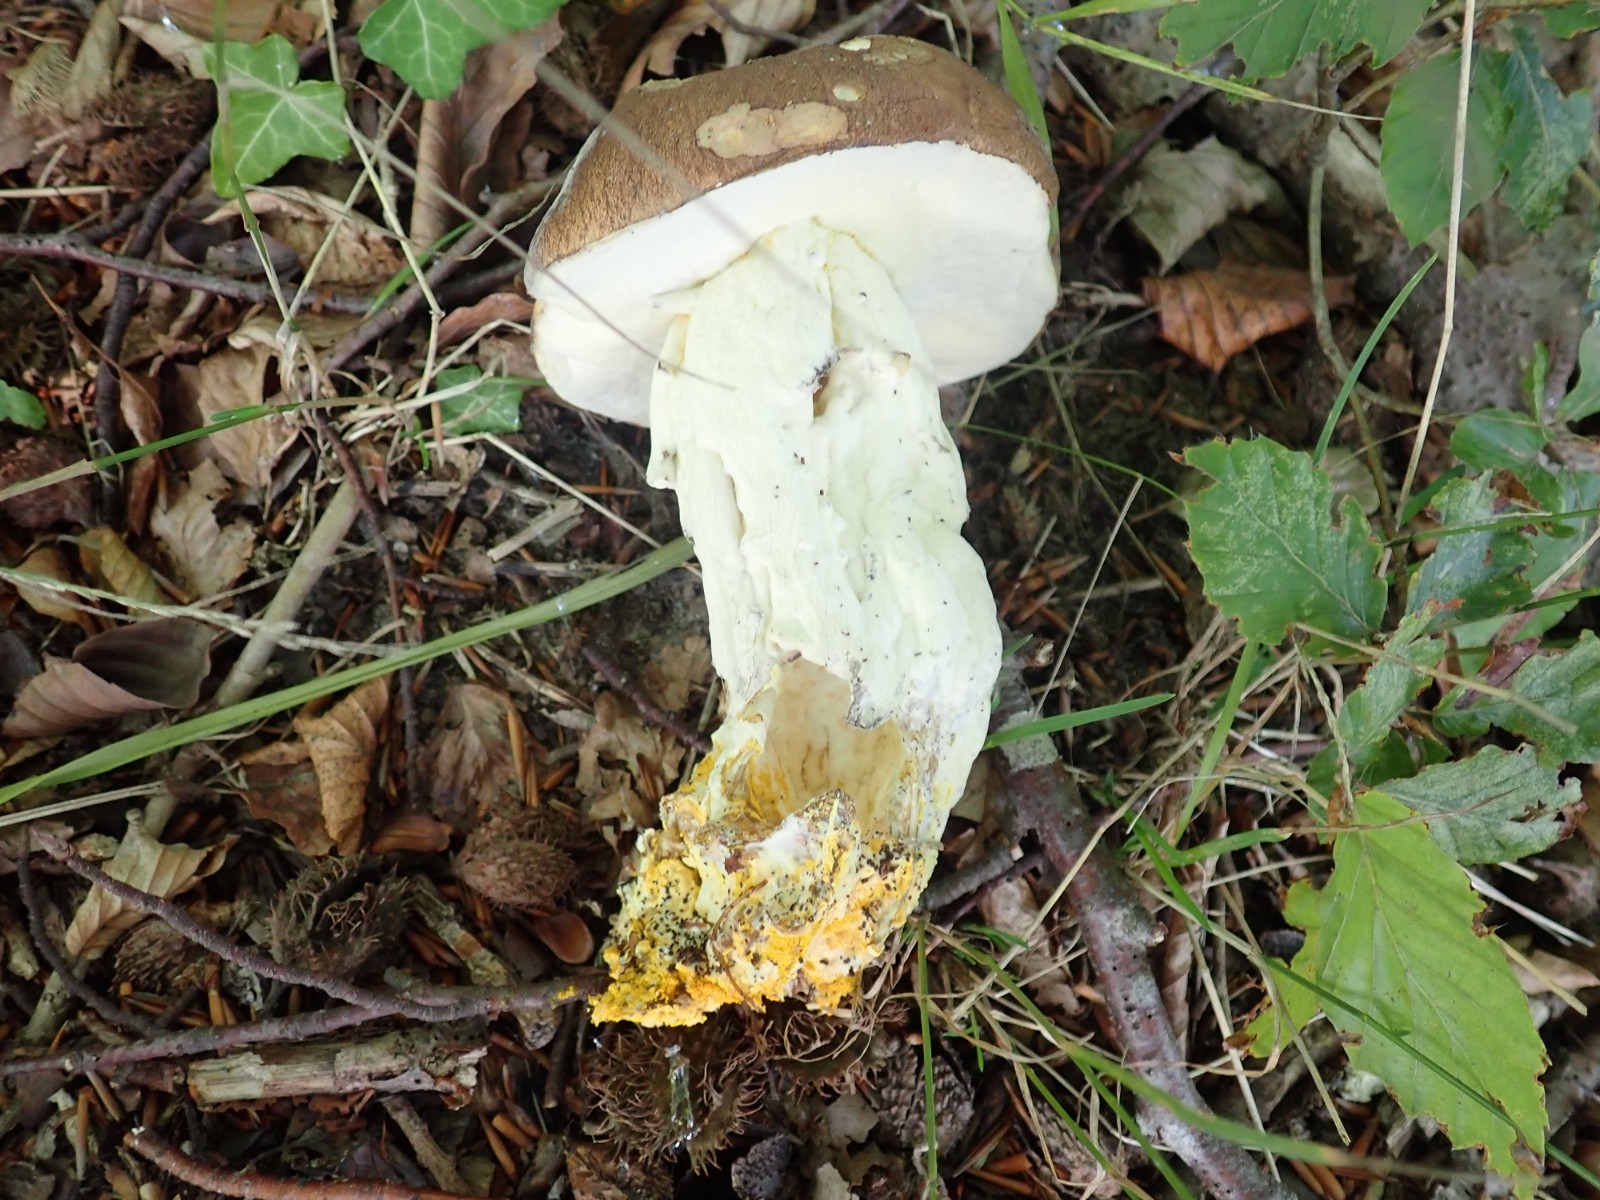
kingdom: Fungi
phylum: Ascomycota
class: Sordariomycetes
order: Hypocreales
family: Hypocreaceae
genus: Hypomyces
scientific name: Hypomyces chrysospermus
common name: gulskimmel-snylteskorpe
